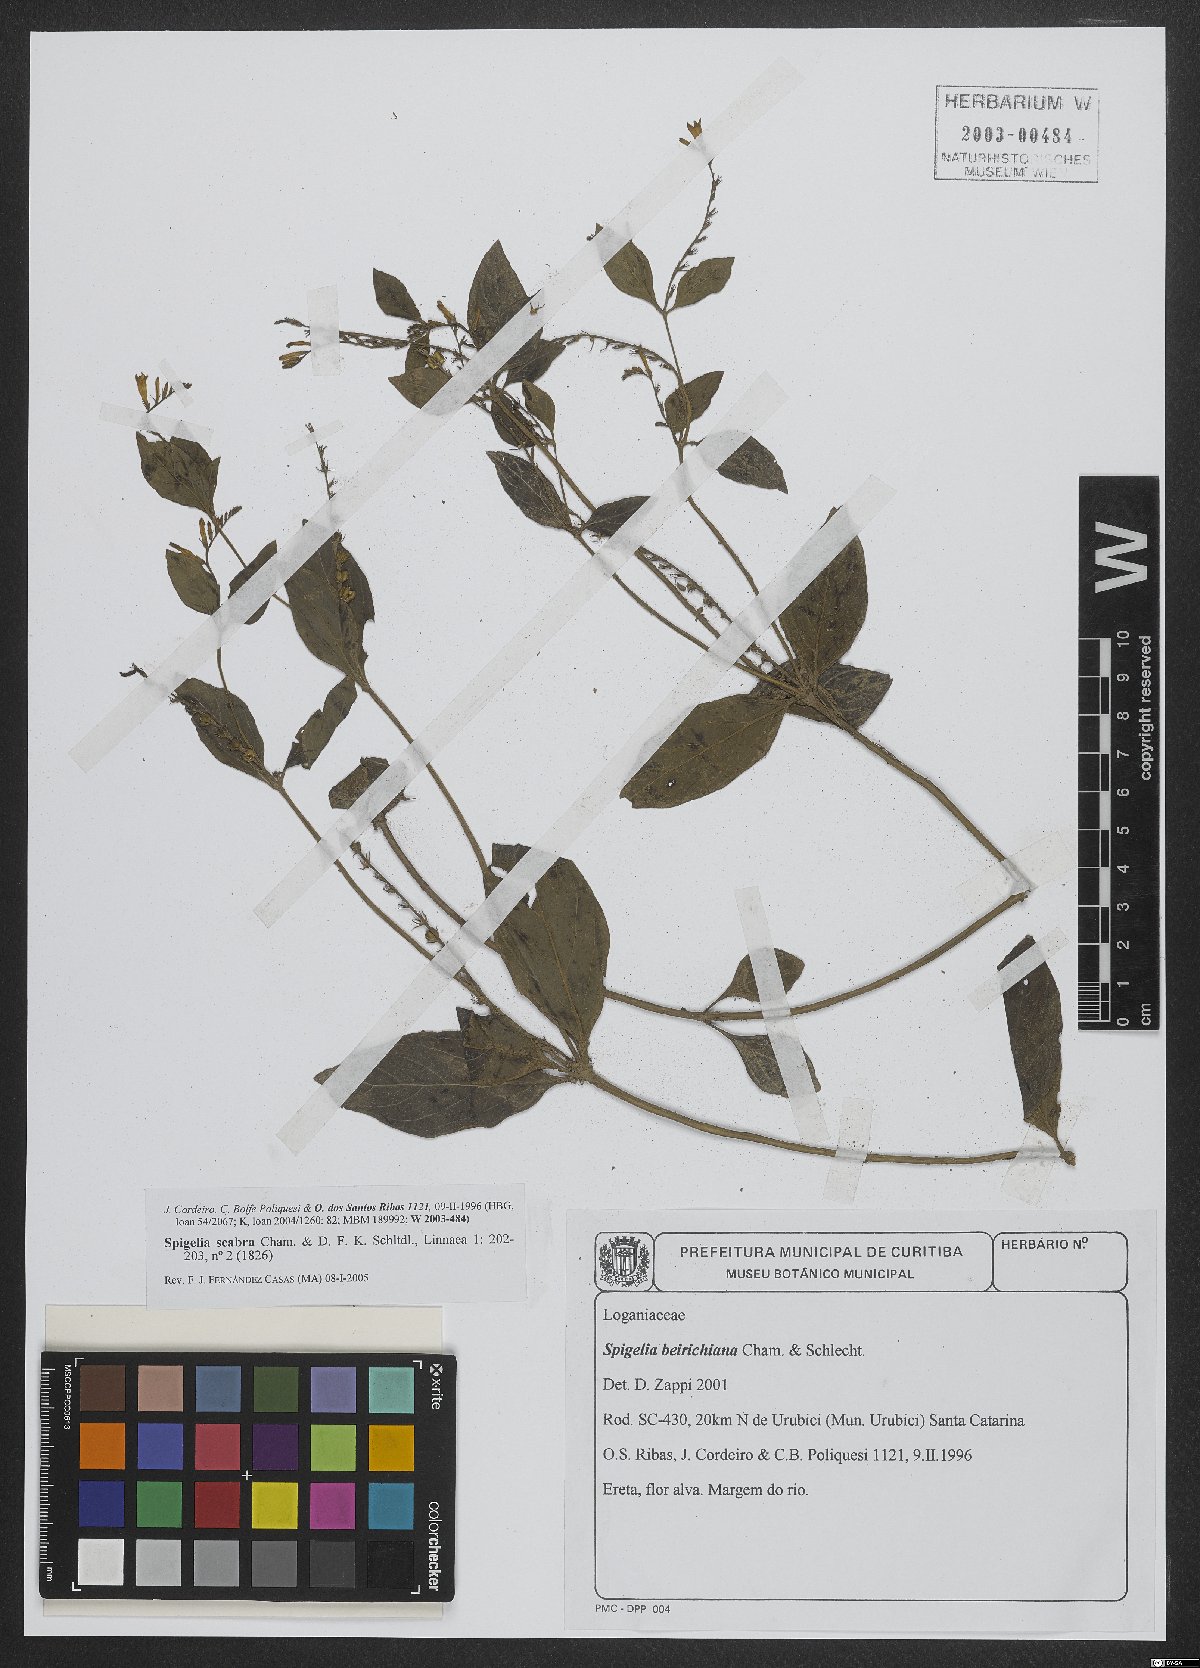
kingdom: Plantae
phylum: Tracheophyta
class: Magnoliopsida
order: Gentianales
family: Loganiaceae
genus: Spigelia
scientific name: Spigelia humboldtiana
